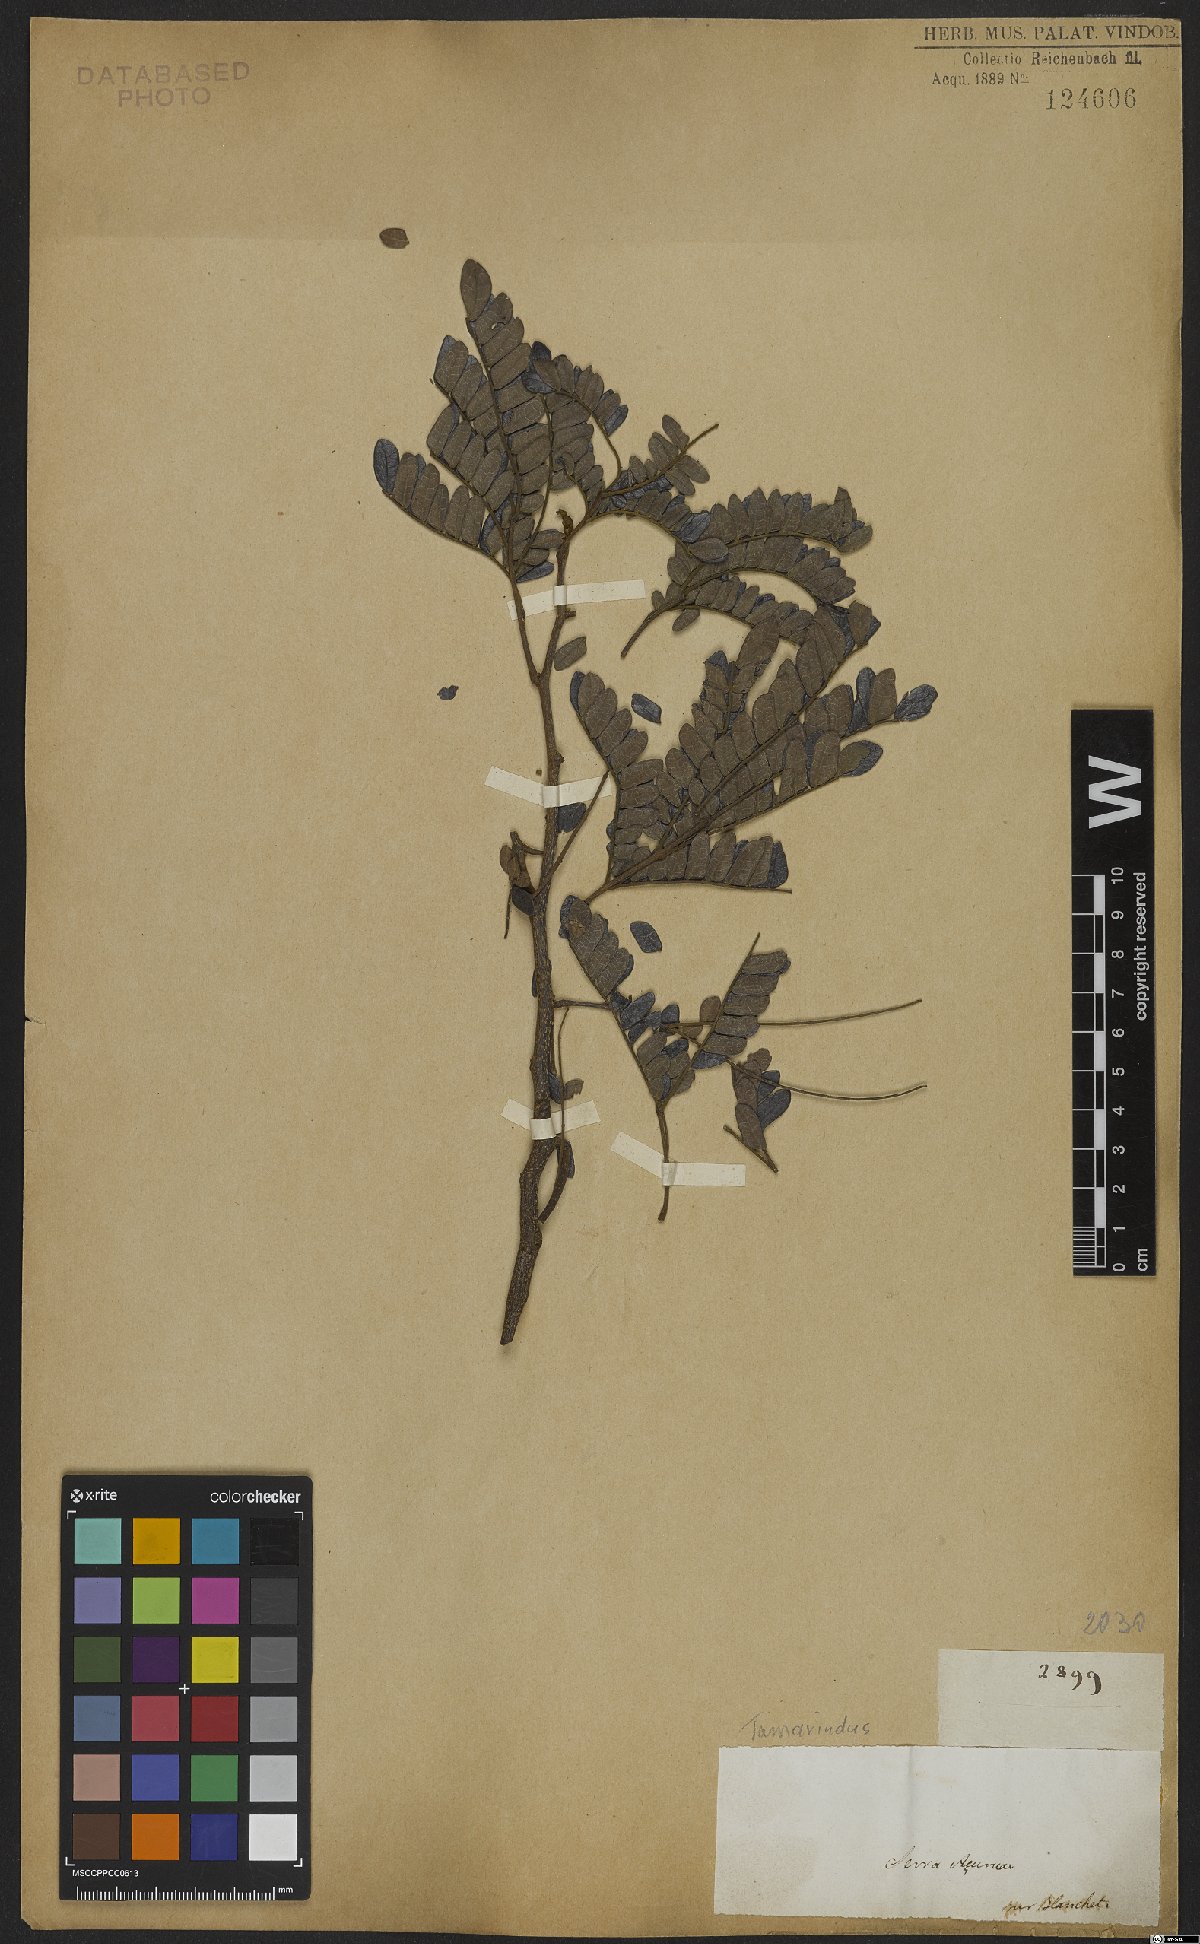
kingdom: Plantae
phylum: Tracheophyta
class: Magnoliopsida
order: Fabales
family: Fabaceae
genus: Tamarindus
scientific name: Tamarindus
